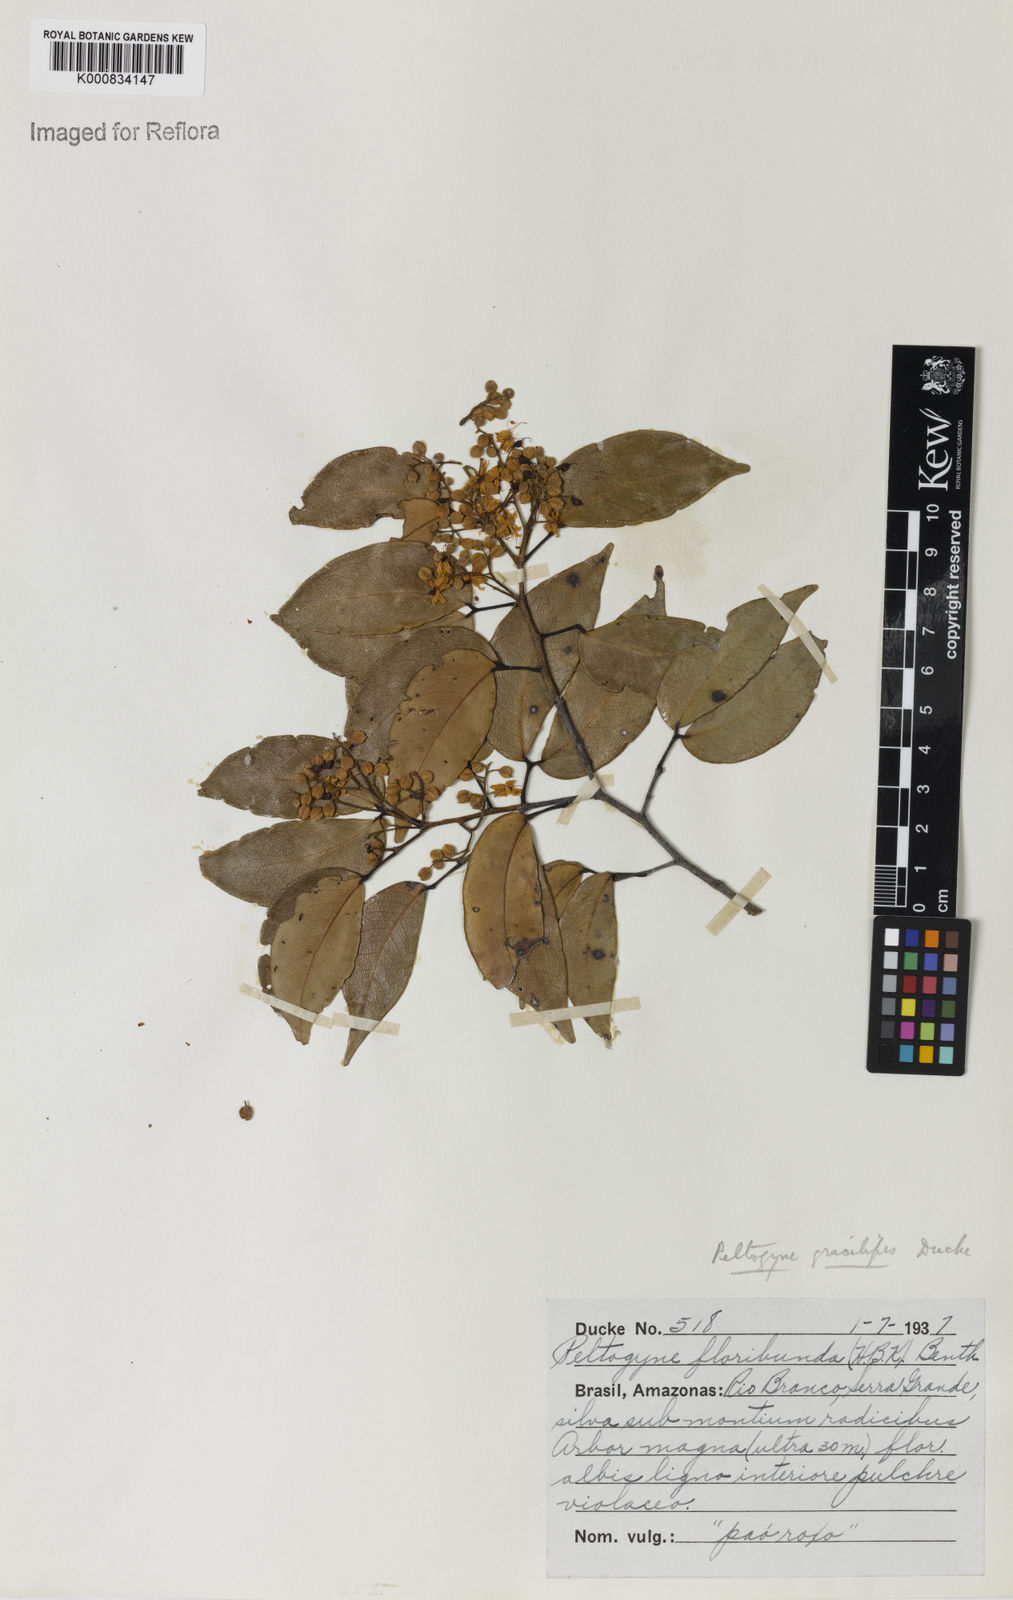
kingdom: Plantae
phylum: Tracheophyta
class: Magnoliopsida
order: Fabales
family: Fabaceae
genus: Peltogyne
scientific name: Peltogyne gracilipes
